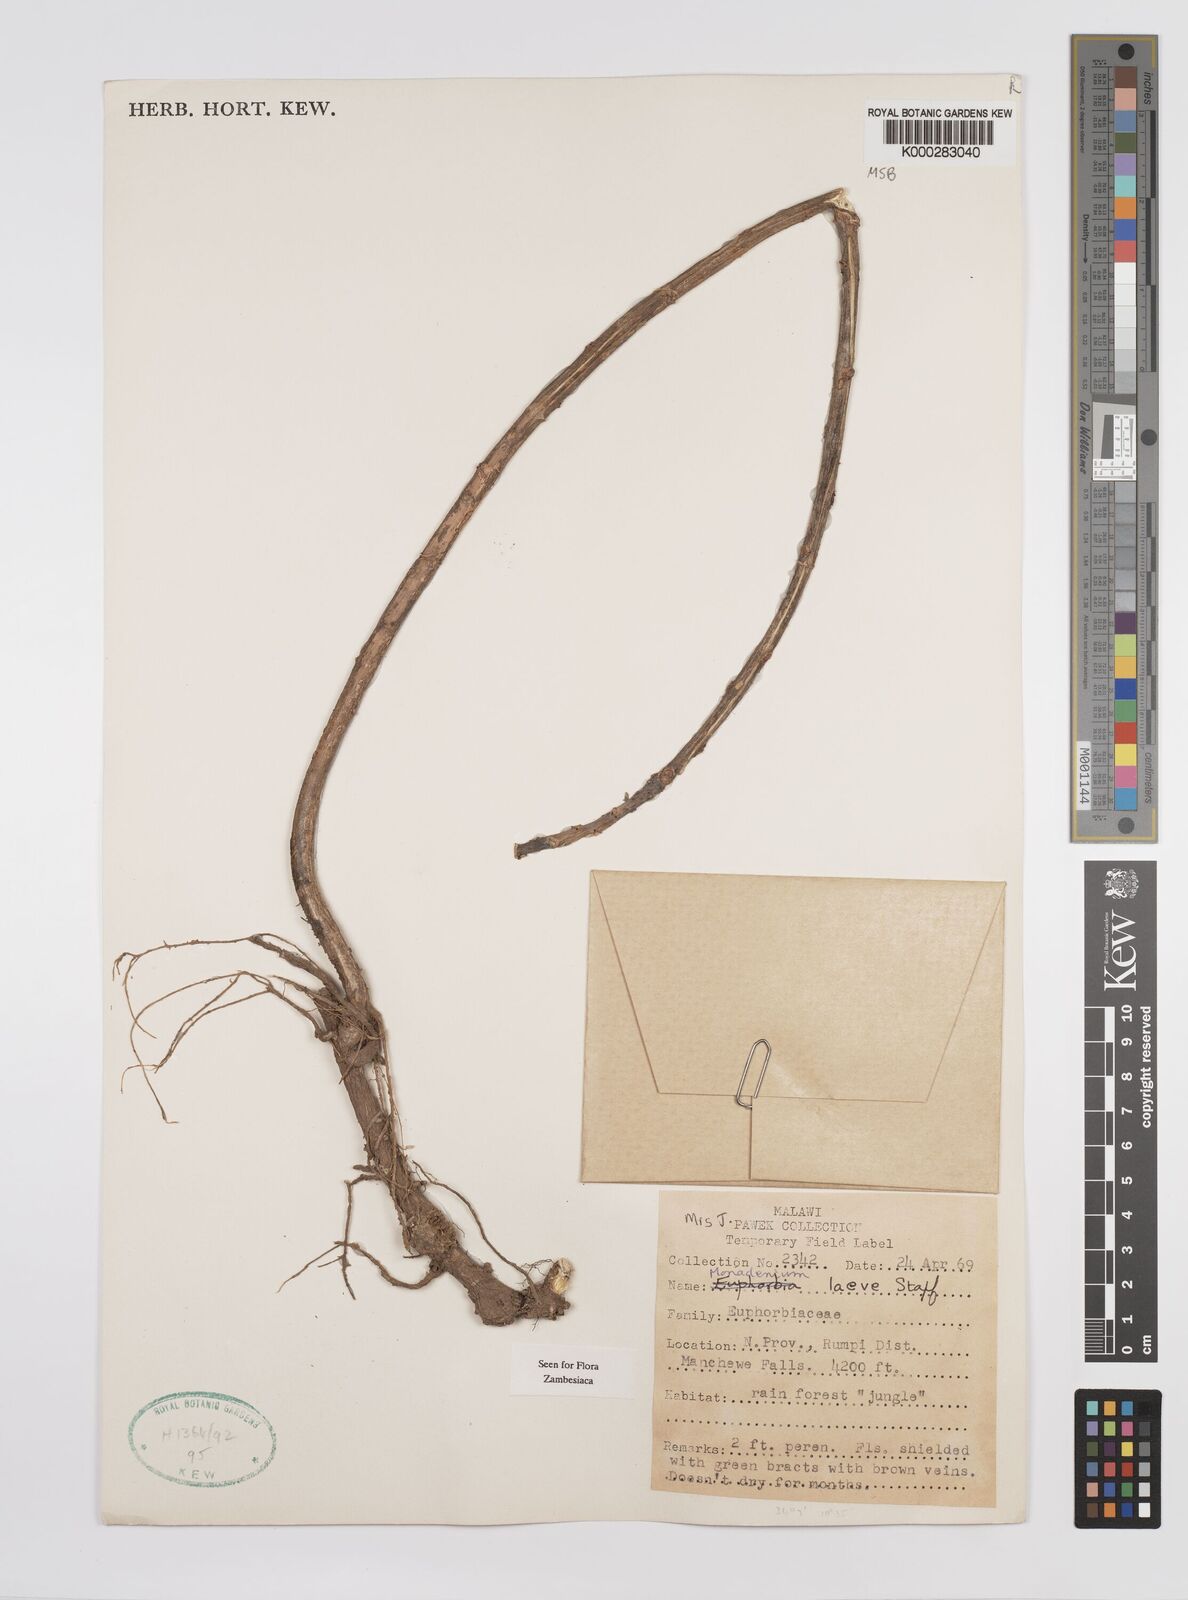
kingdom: Plantae
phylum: Tracheophyta
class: Magnoliopsida
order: Malpighiales
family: Euphorbiaceae
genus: Euphorbia
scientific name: Euphorbia pseudolaevis
